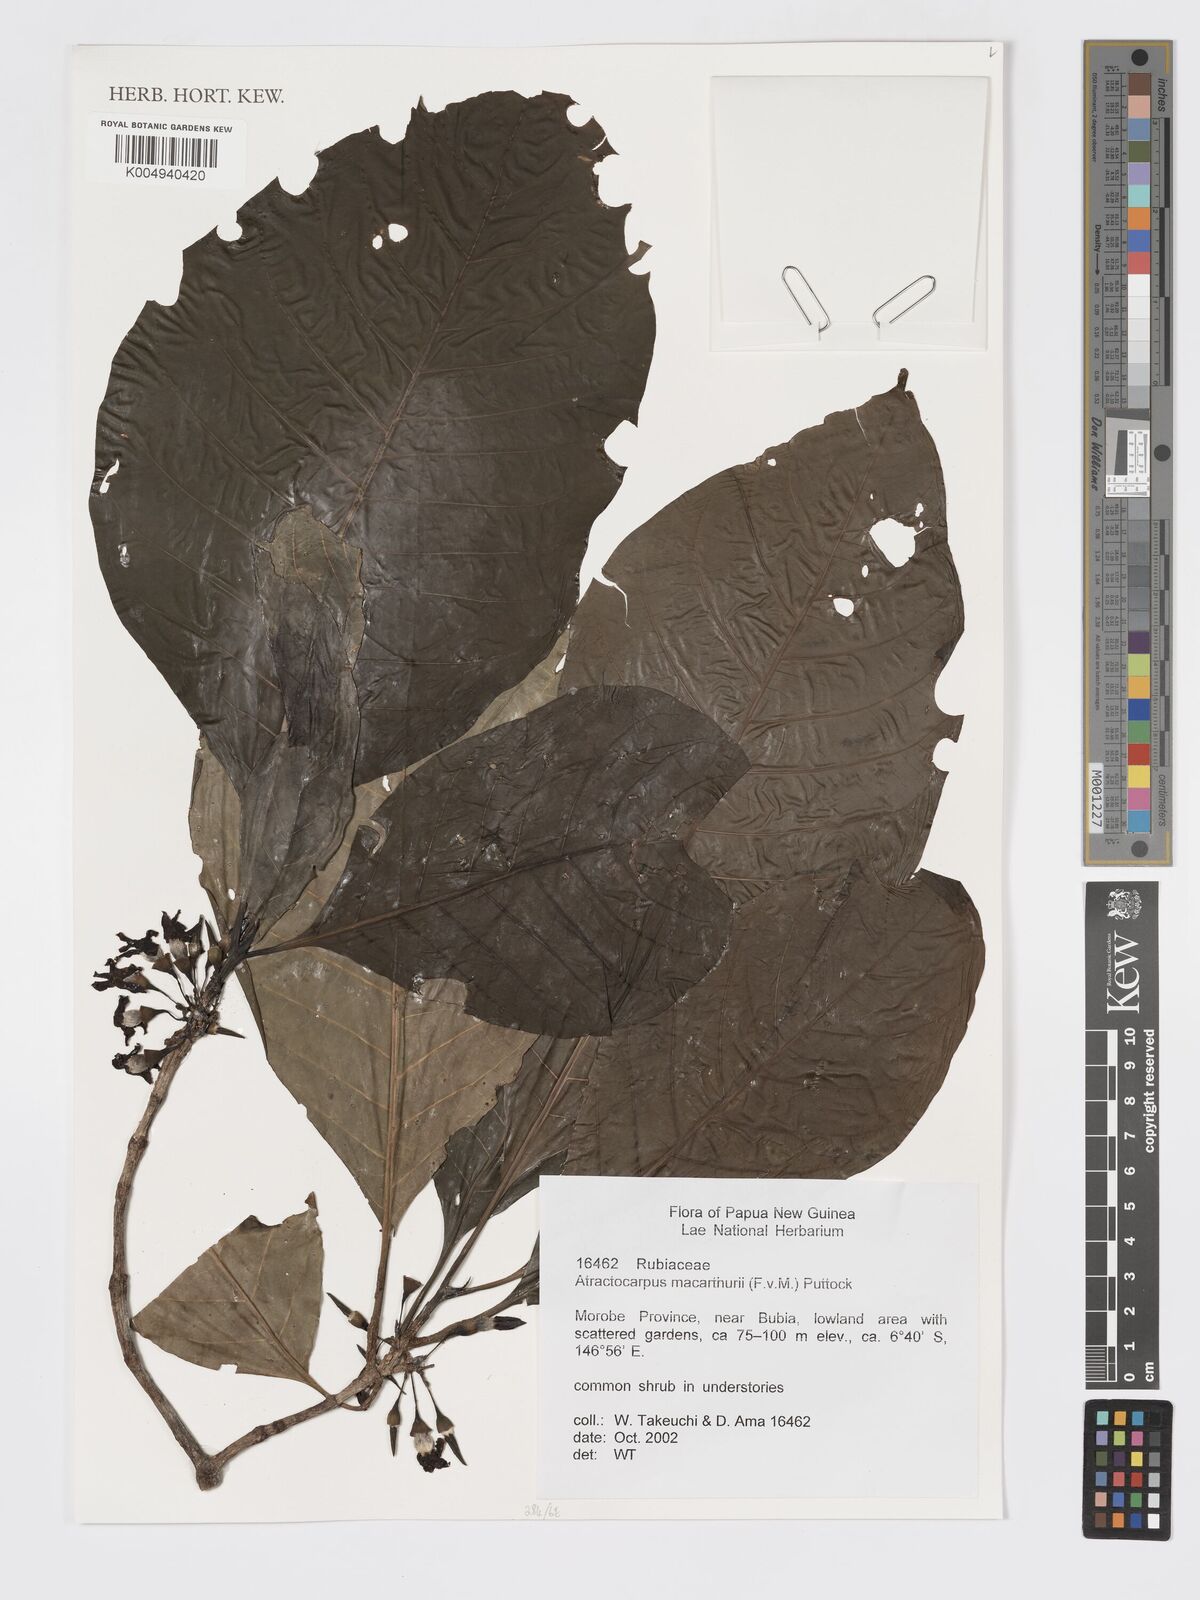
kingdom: Plantae
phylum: Tracheophyta
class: Magnoliopsida
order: Gentianales
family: Rubiaceae
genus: Atractocarpus
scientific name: Atractocarpus macarthurii
